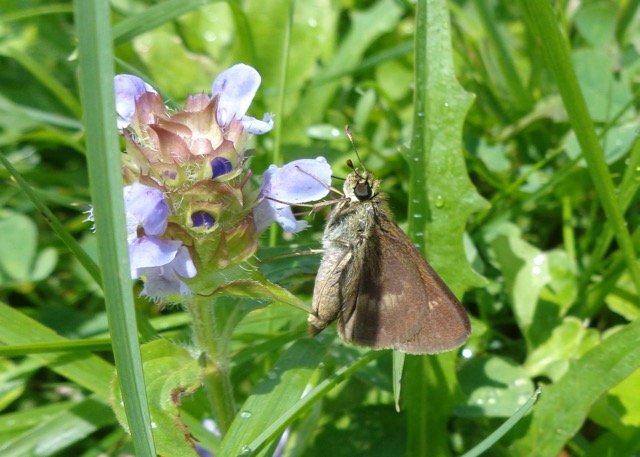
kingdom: Animalia
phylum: Arthropoda
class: Insecta
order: Lepidoptera
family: Hesperiidae
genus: Polites
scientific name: Polites egeremet
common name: Northern Broken-Dash
